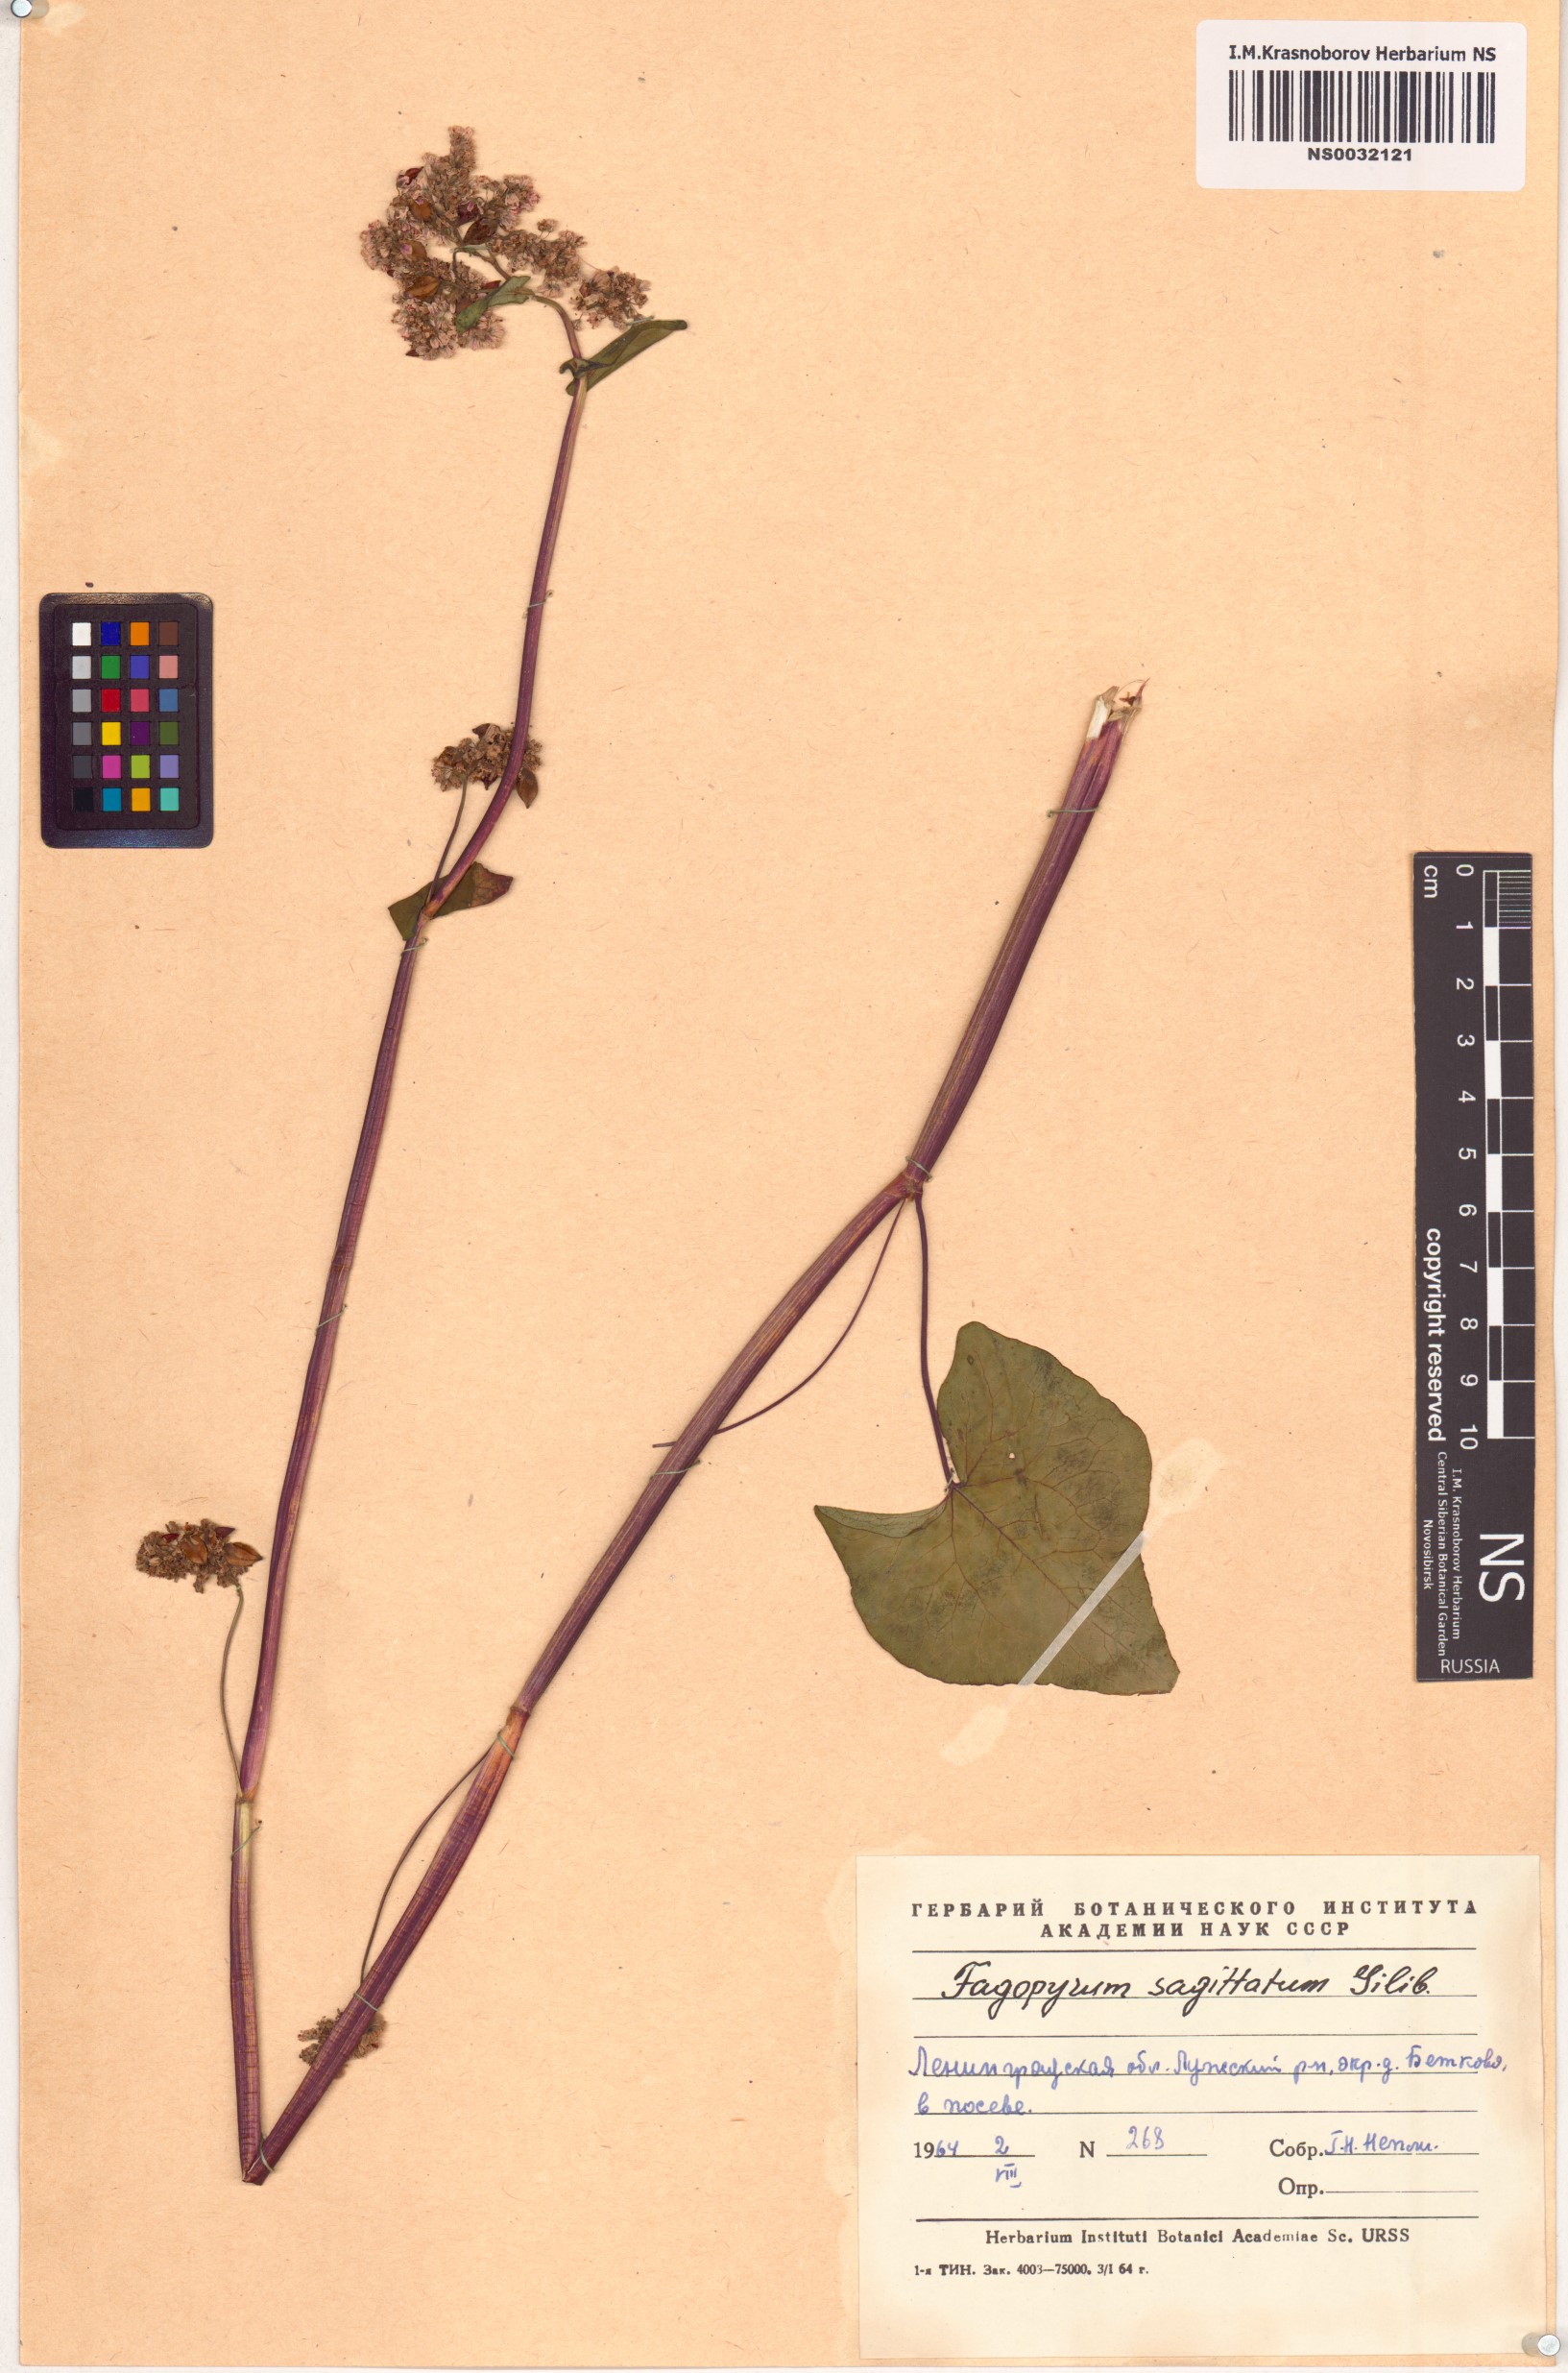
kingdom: Plantae
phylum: Tracheophyta
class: Magnoliopsida
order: Caryophyllales
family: Polygonaceae
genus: Fagopyrum
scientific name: Fagopyrum esculentum
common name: Buckwheat
